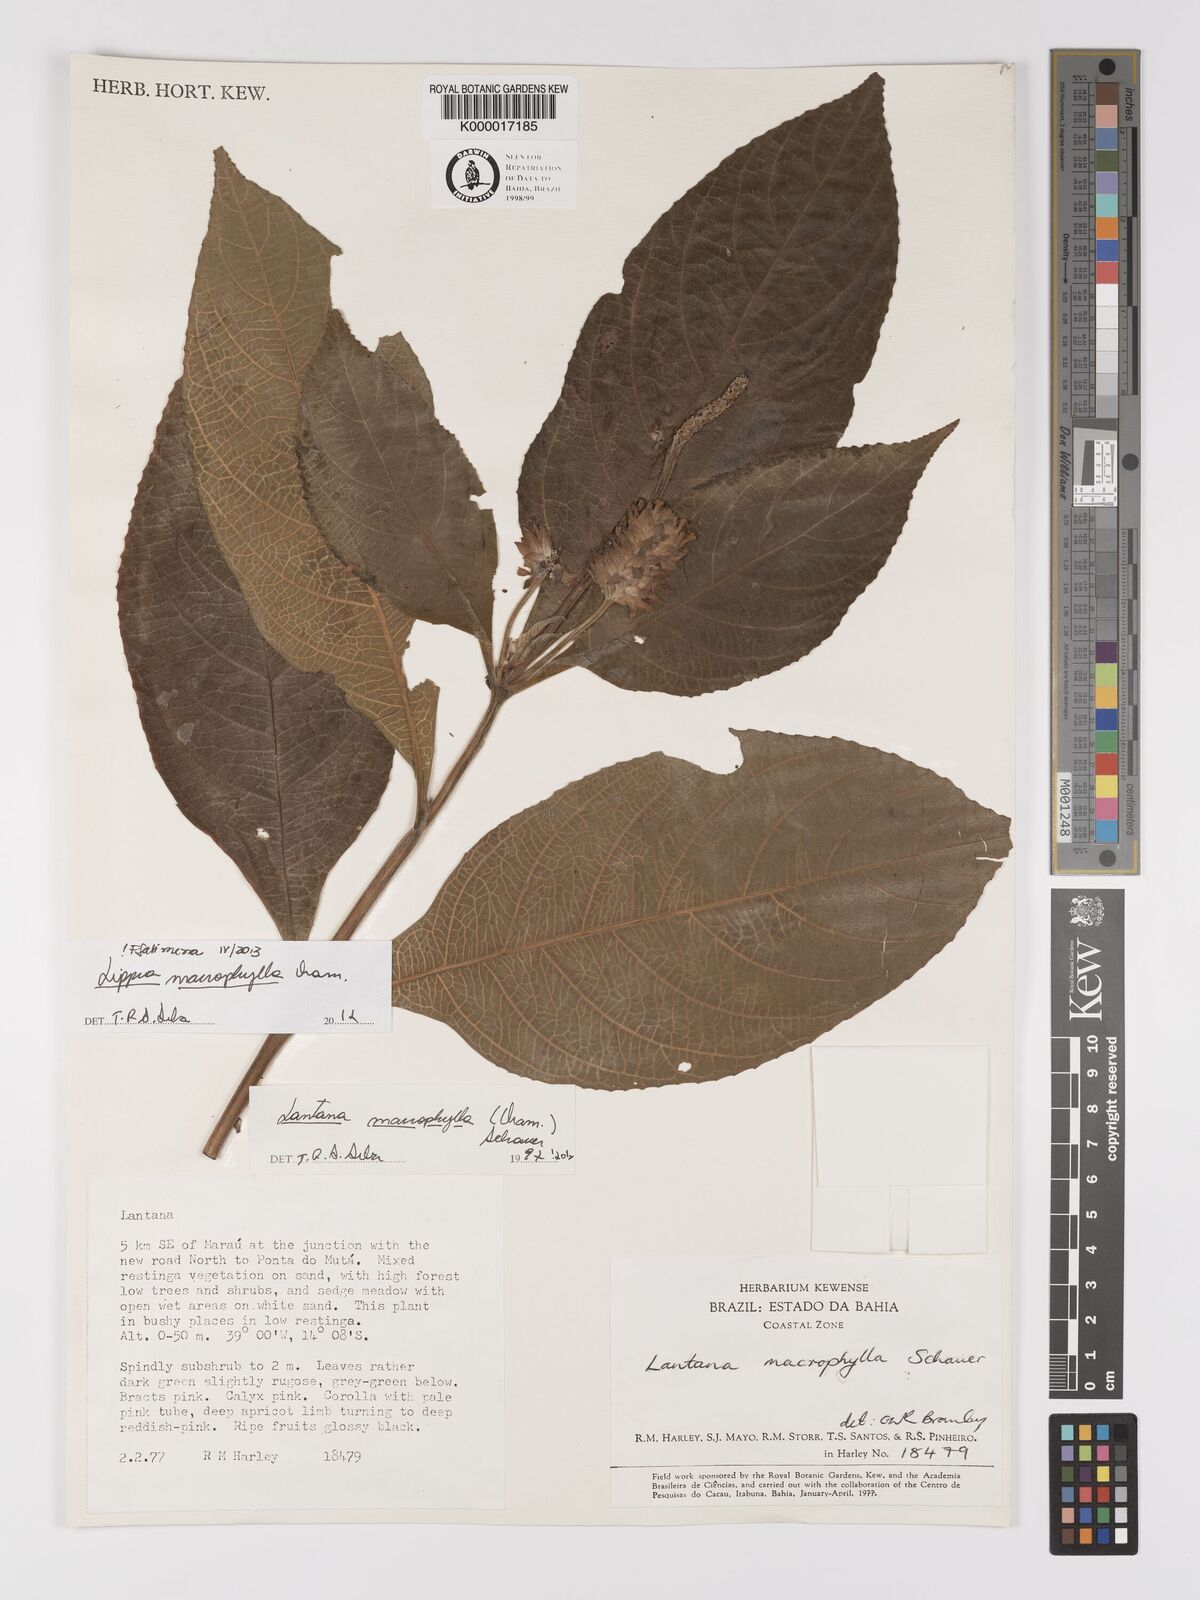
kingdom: Plantae
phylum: Tracheophyta
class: Magnoliopsida
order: Lamiales
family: Verbenaceae
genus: Lippia
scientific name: Lippia macrophylla
